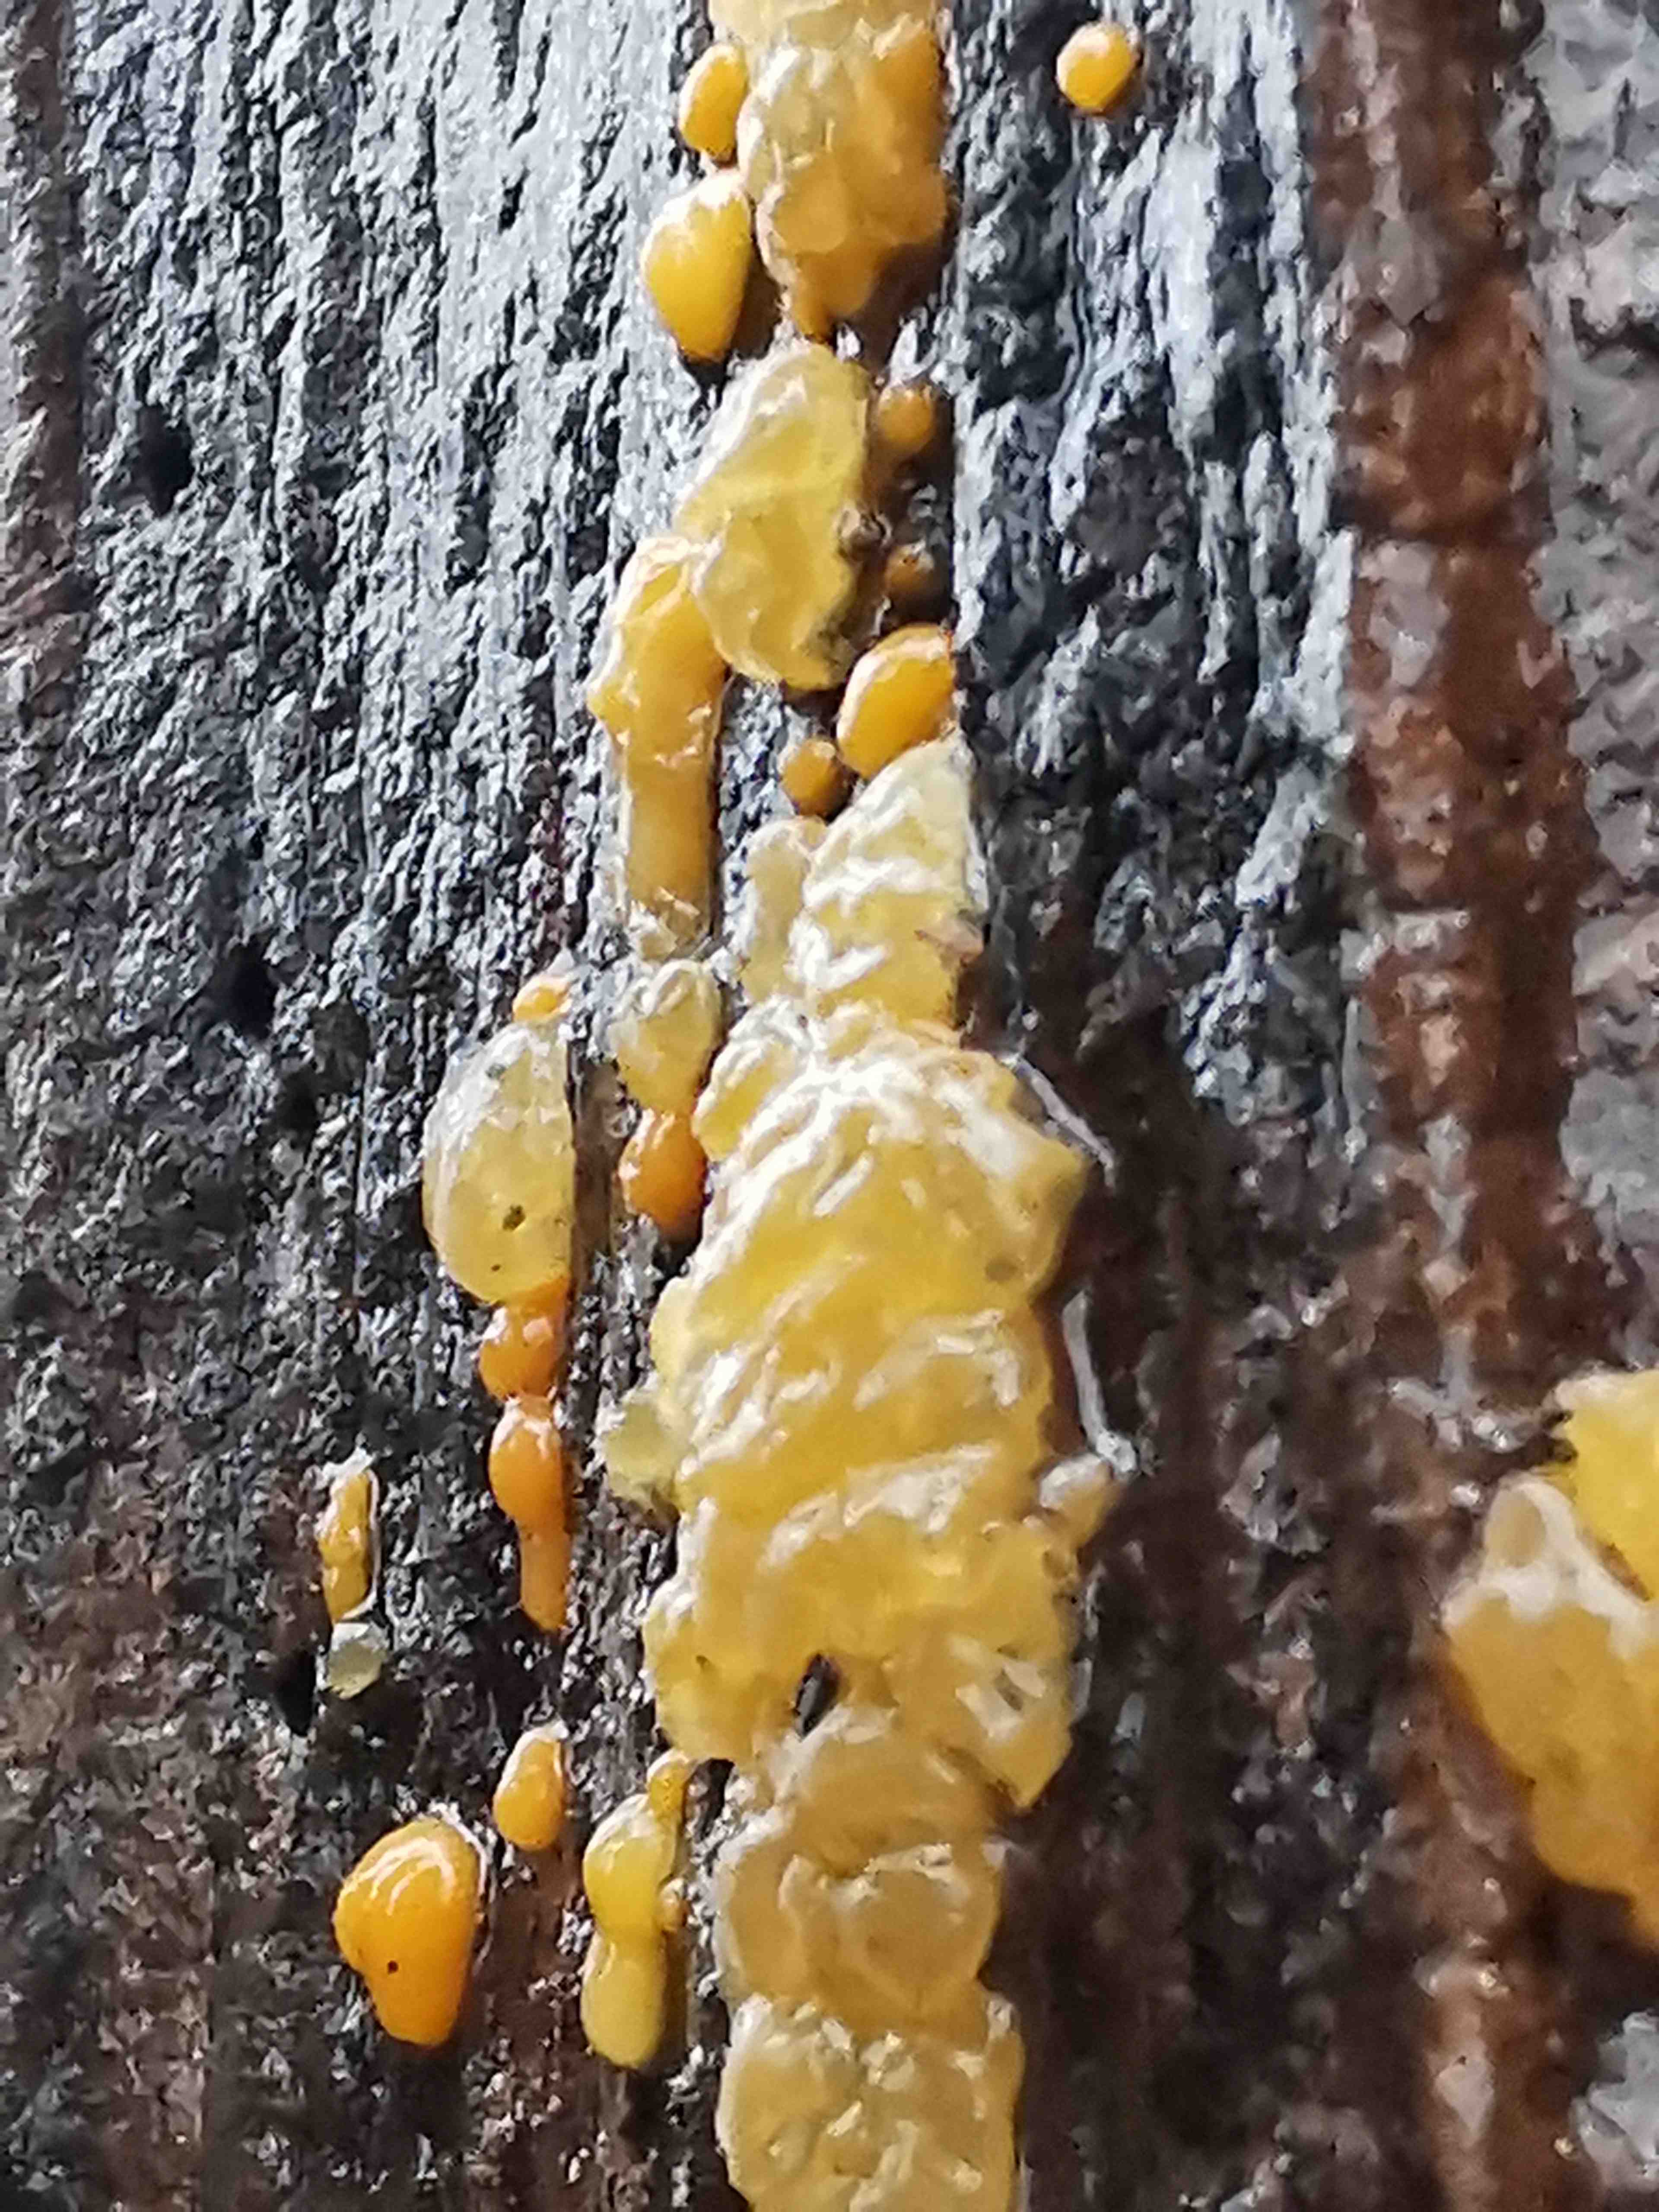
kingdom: Fungi
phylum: Basidiomycota
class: Dacrymycetes
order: Dacrymycetales
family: Dacrymycetaceae
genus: Dacrymyces
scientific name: Dacrymyces lacrymalis
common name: rynket tåresvamp
